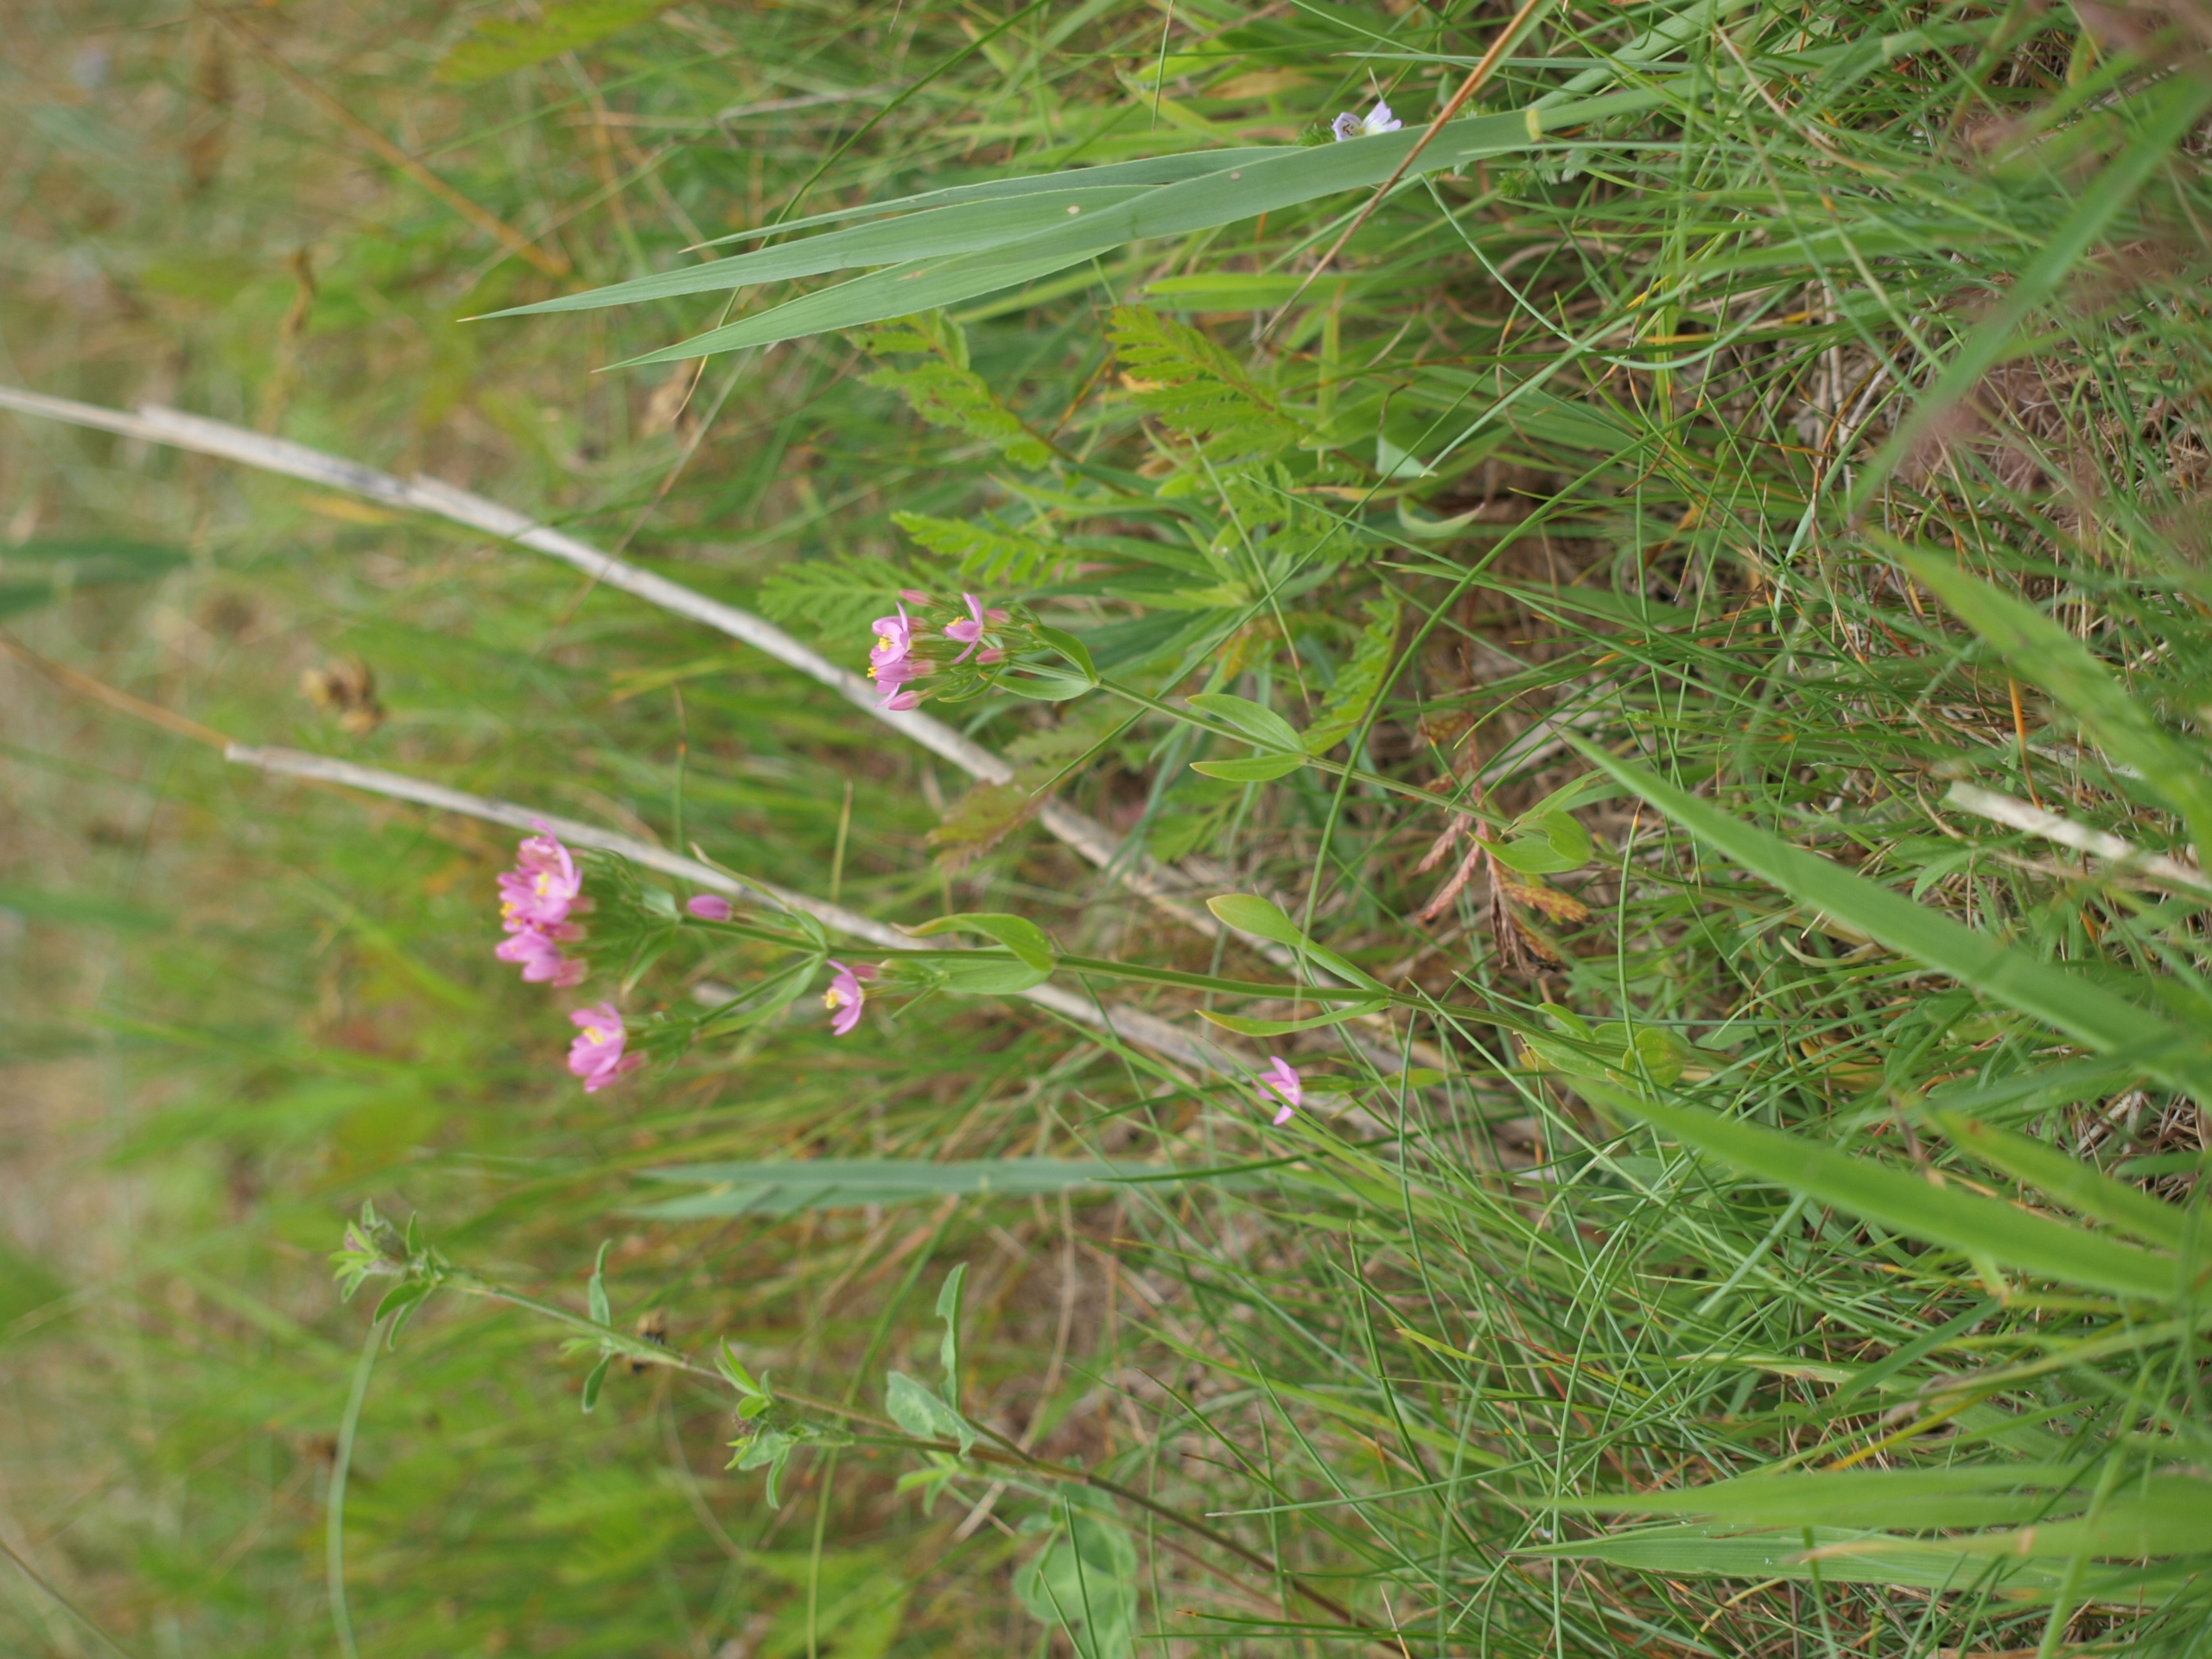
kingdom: Plantae
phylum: Tracheophyta
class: Magnoliopsida
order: Gentianales
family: Gentianaceae
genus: Centaurium
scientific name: Centaurium erythraea
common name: Mark-tusindgylden
